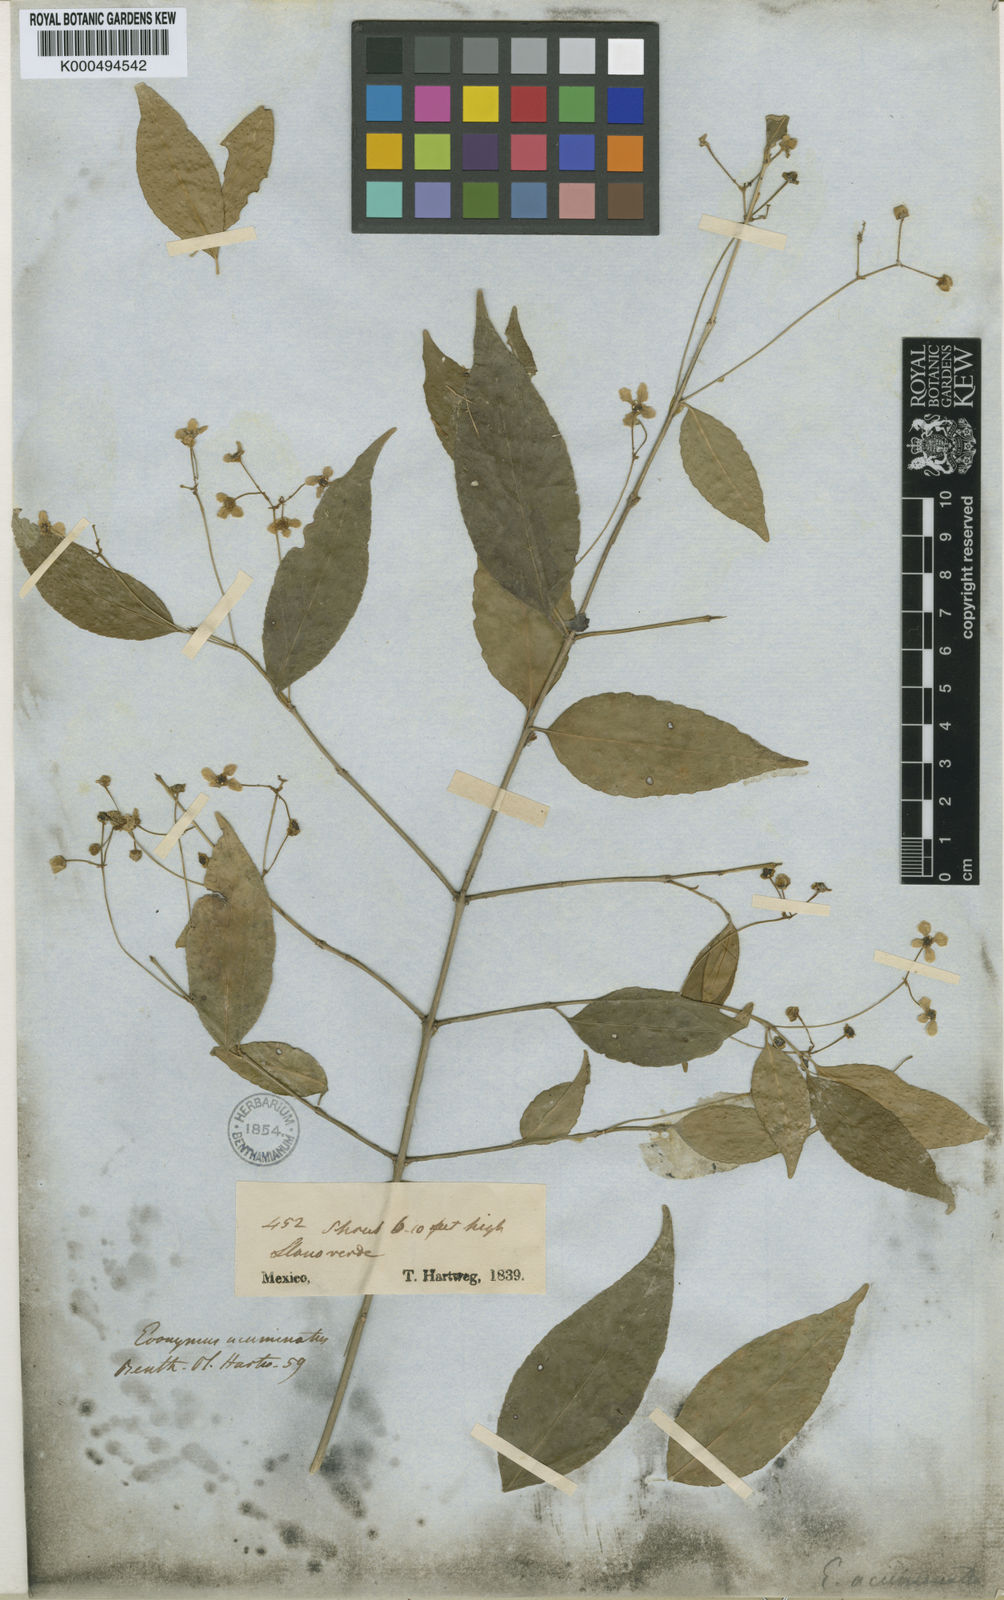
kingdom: Plantae
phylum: Tracheophyta
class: Magnoliopsida
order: Celastrales
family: Celastraceae
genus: Euonymus
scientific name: Euonymus benthamii
